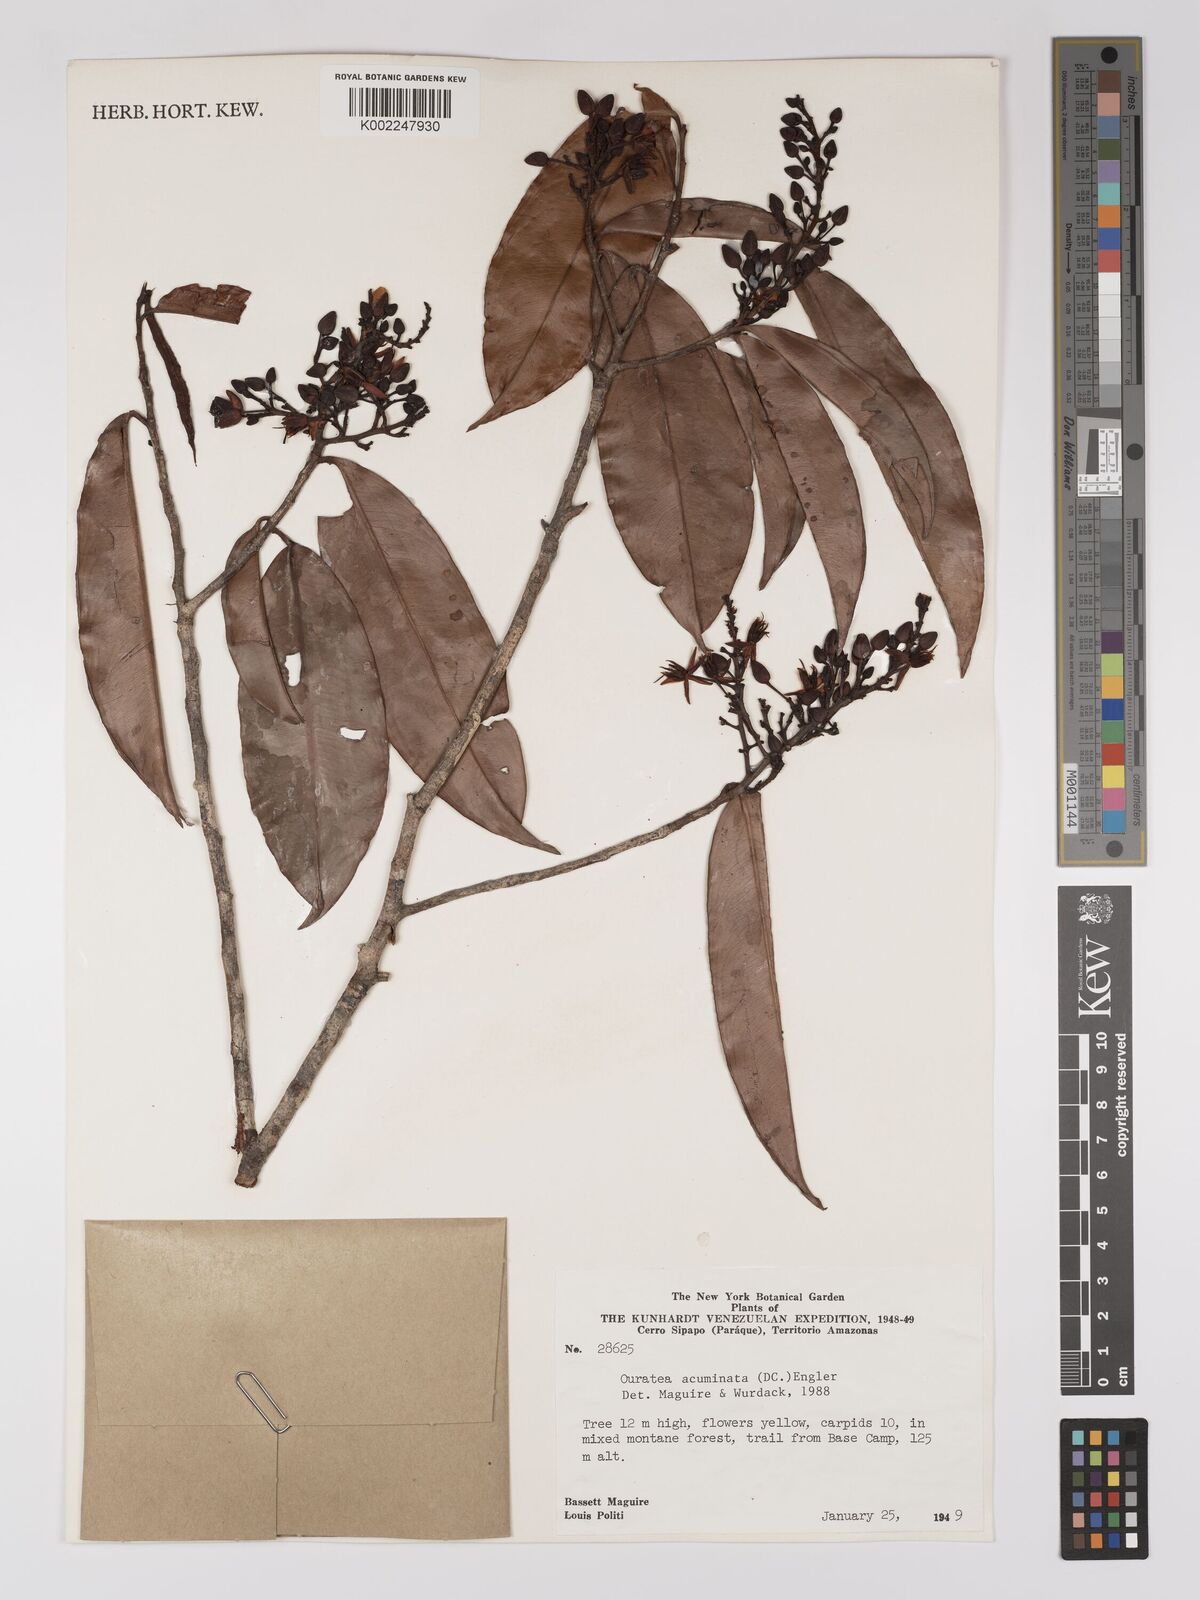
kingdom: Plantae
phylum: Tracheophyta
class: Magnoliopsida
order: Malpighiales
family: Ochnaceae
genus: Ouratea
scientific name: Ouratea acuminata
